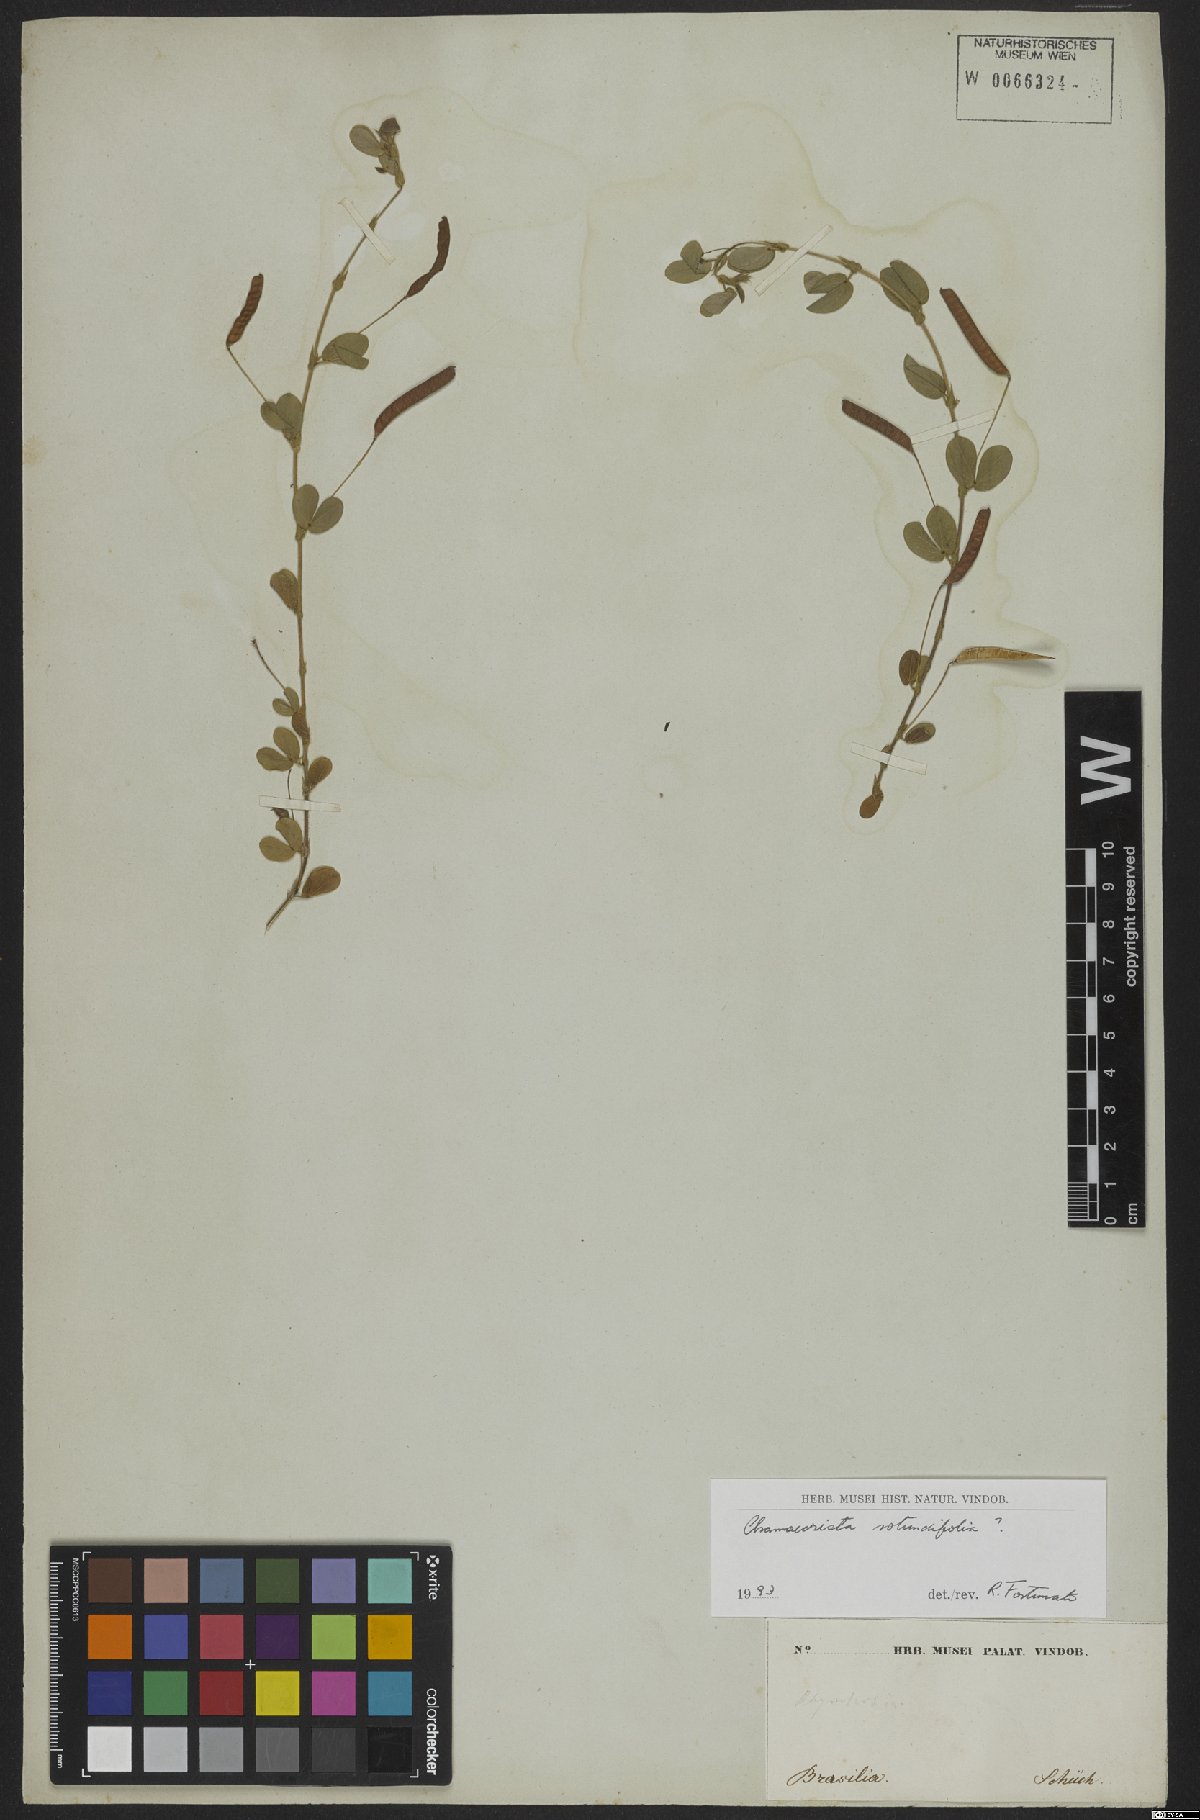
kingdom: Plantae
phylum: Tracheophyta
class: Magnoliopsida
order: Fabales
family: Fabaceae
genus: Chamaecrista
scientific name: Chamaecrista
